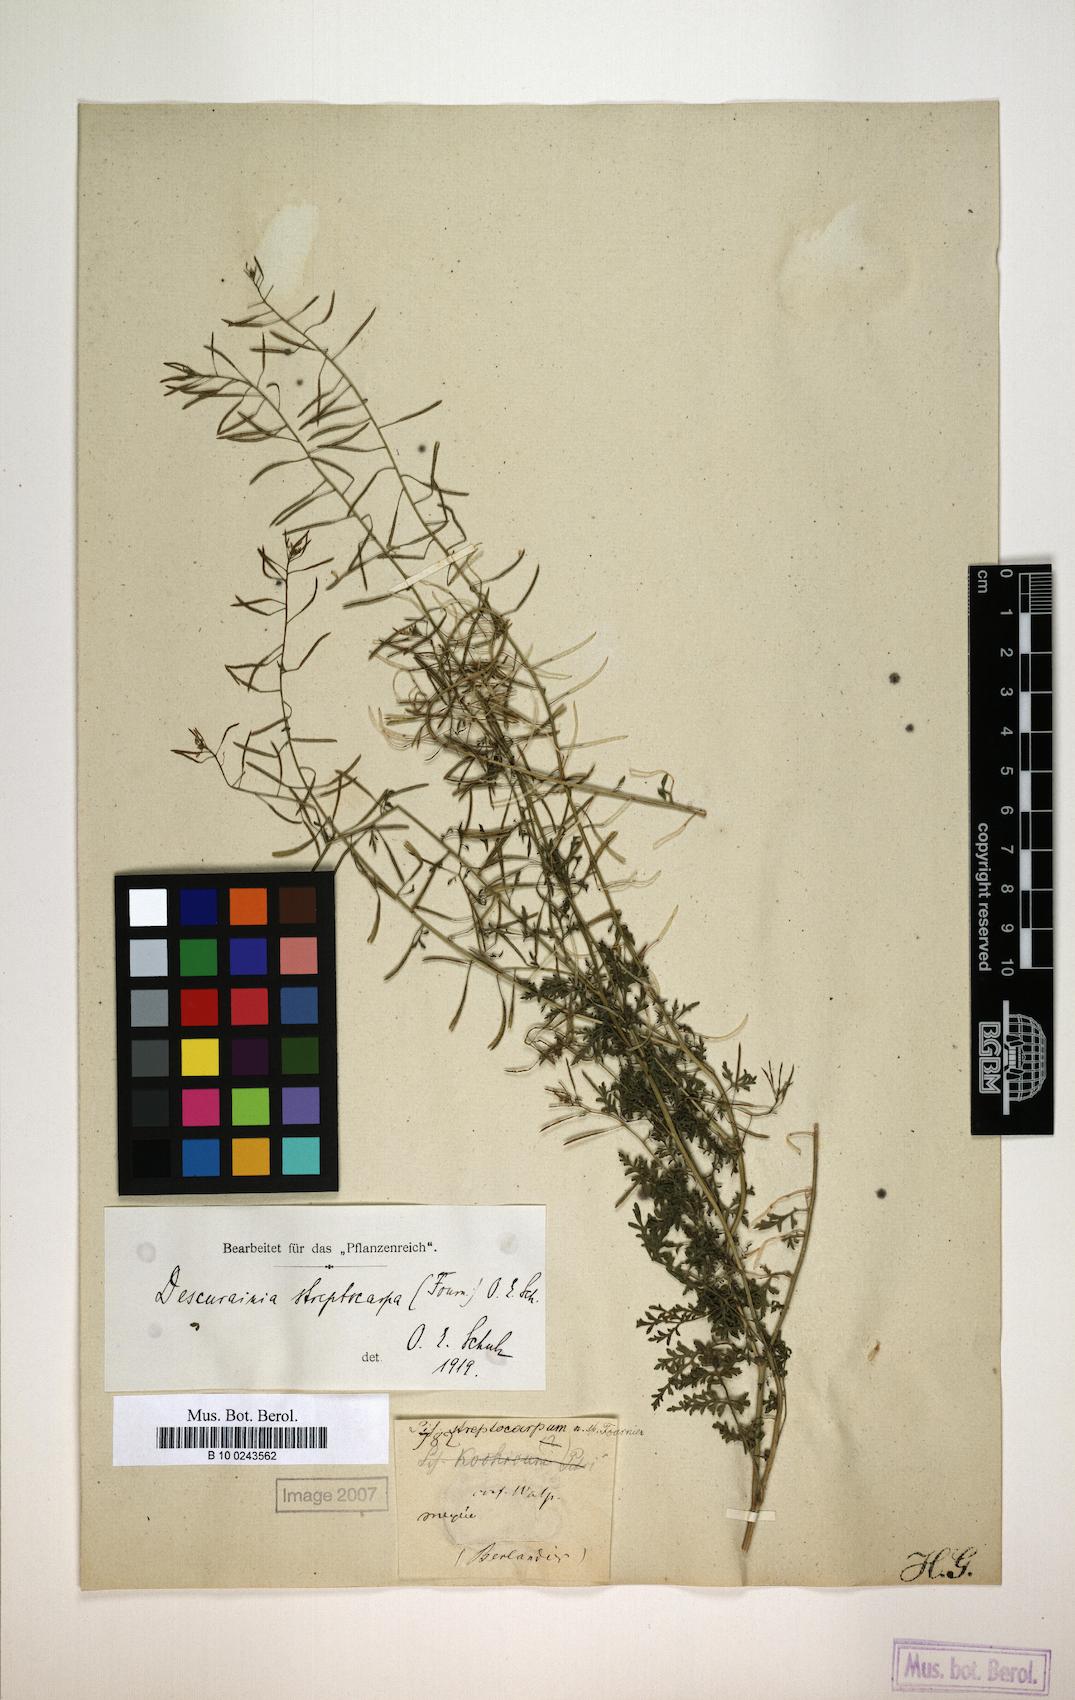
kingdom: Plantae
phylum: Tracheophyta
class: Magnoliopsida
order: Brassicales
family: Brassicaceae
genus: Descurainia
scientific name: Descurainia streptocarpa
